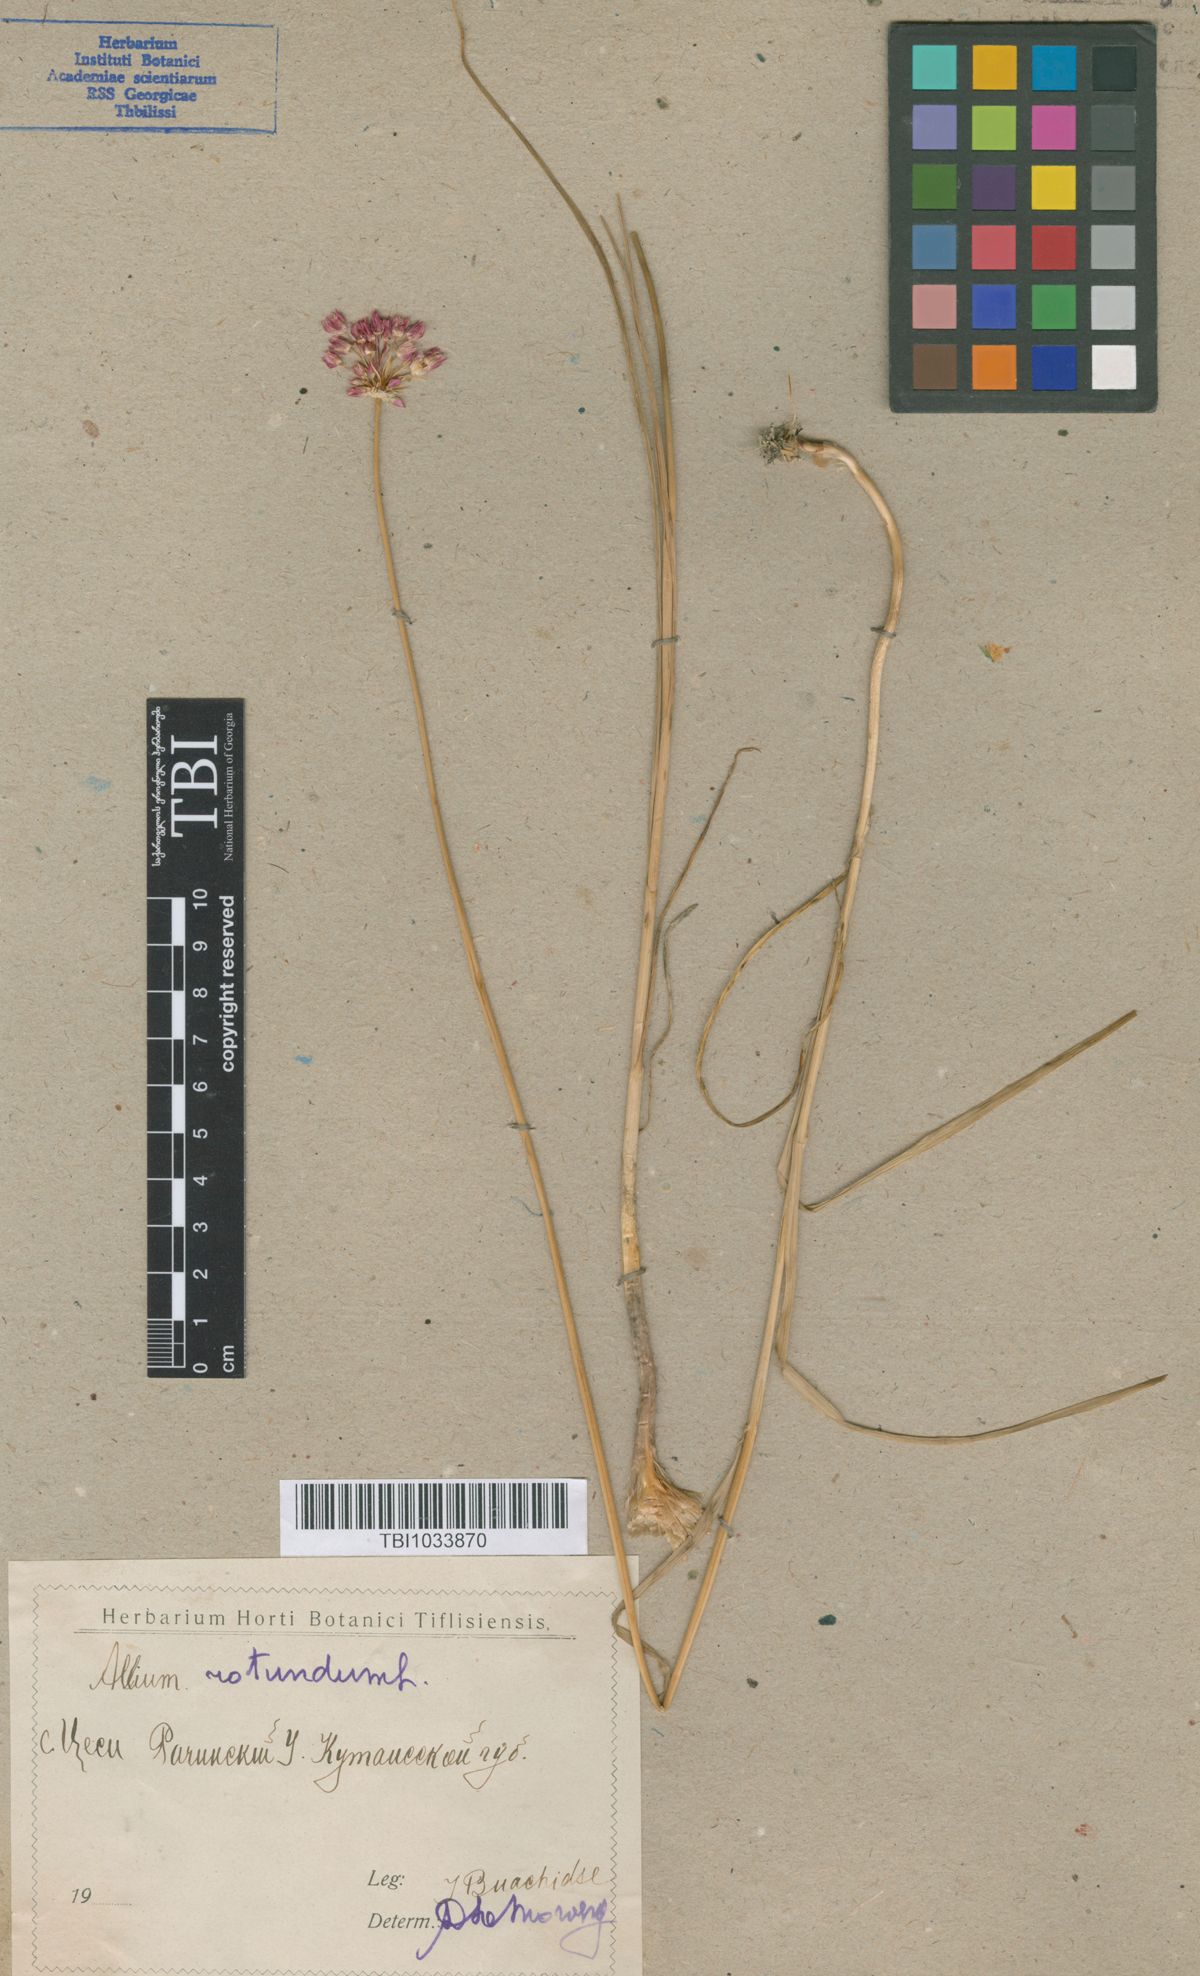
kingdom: Plantae
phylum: Tracheophyta
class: Liliopsida
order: Asparagales
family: Amaryllidaceae
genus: Allium
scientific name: Allium rotundum
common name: Sand leek
